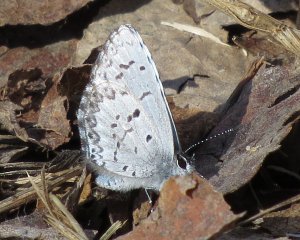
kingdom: Animalia
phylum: Arthropoda
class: Insecta
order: Lepidoptera
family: Lycaenidae
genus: Celastrina
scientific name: Celastrina lucia
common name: Northern Spring Azure
